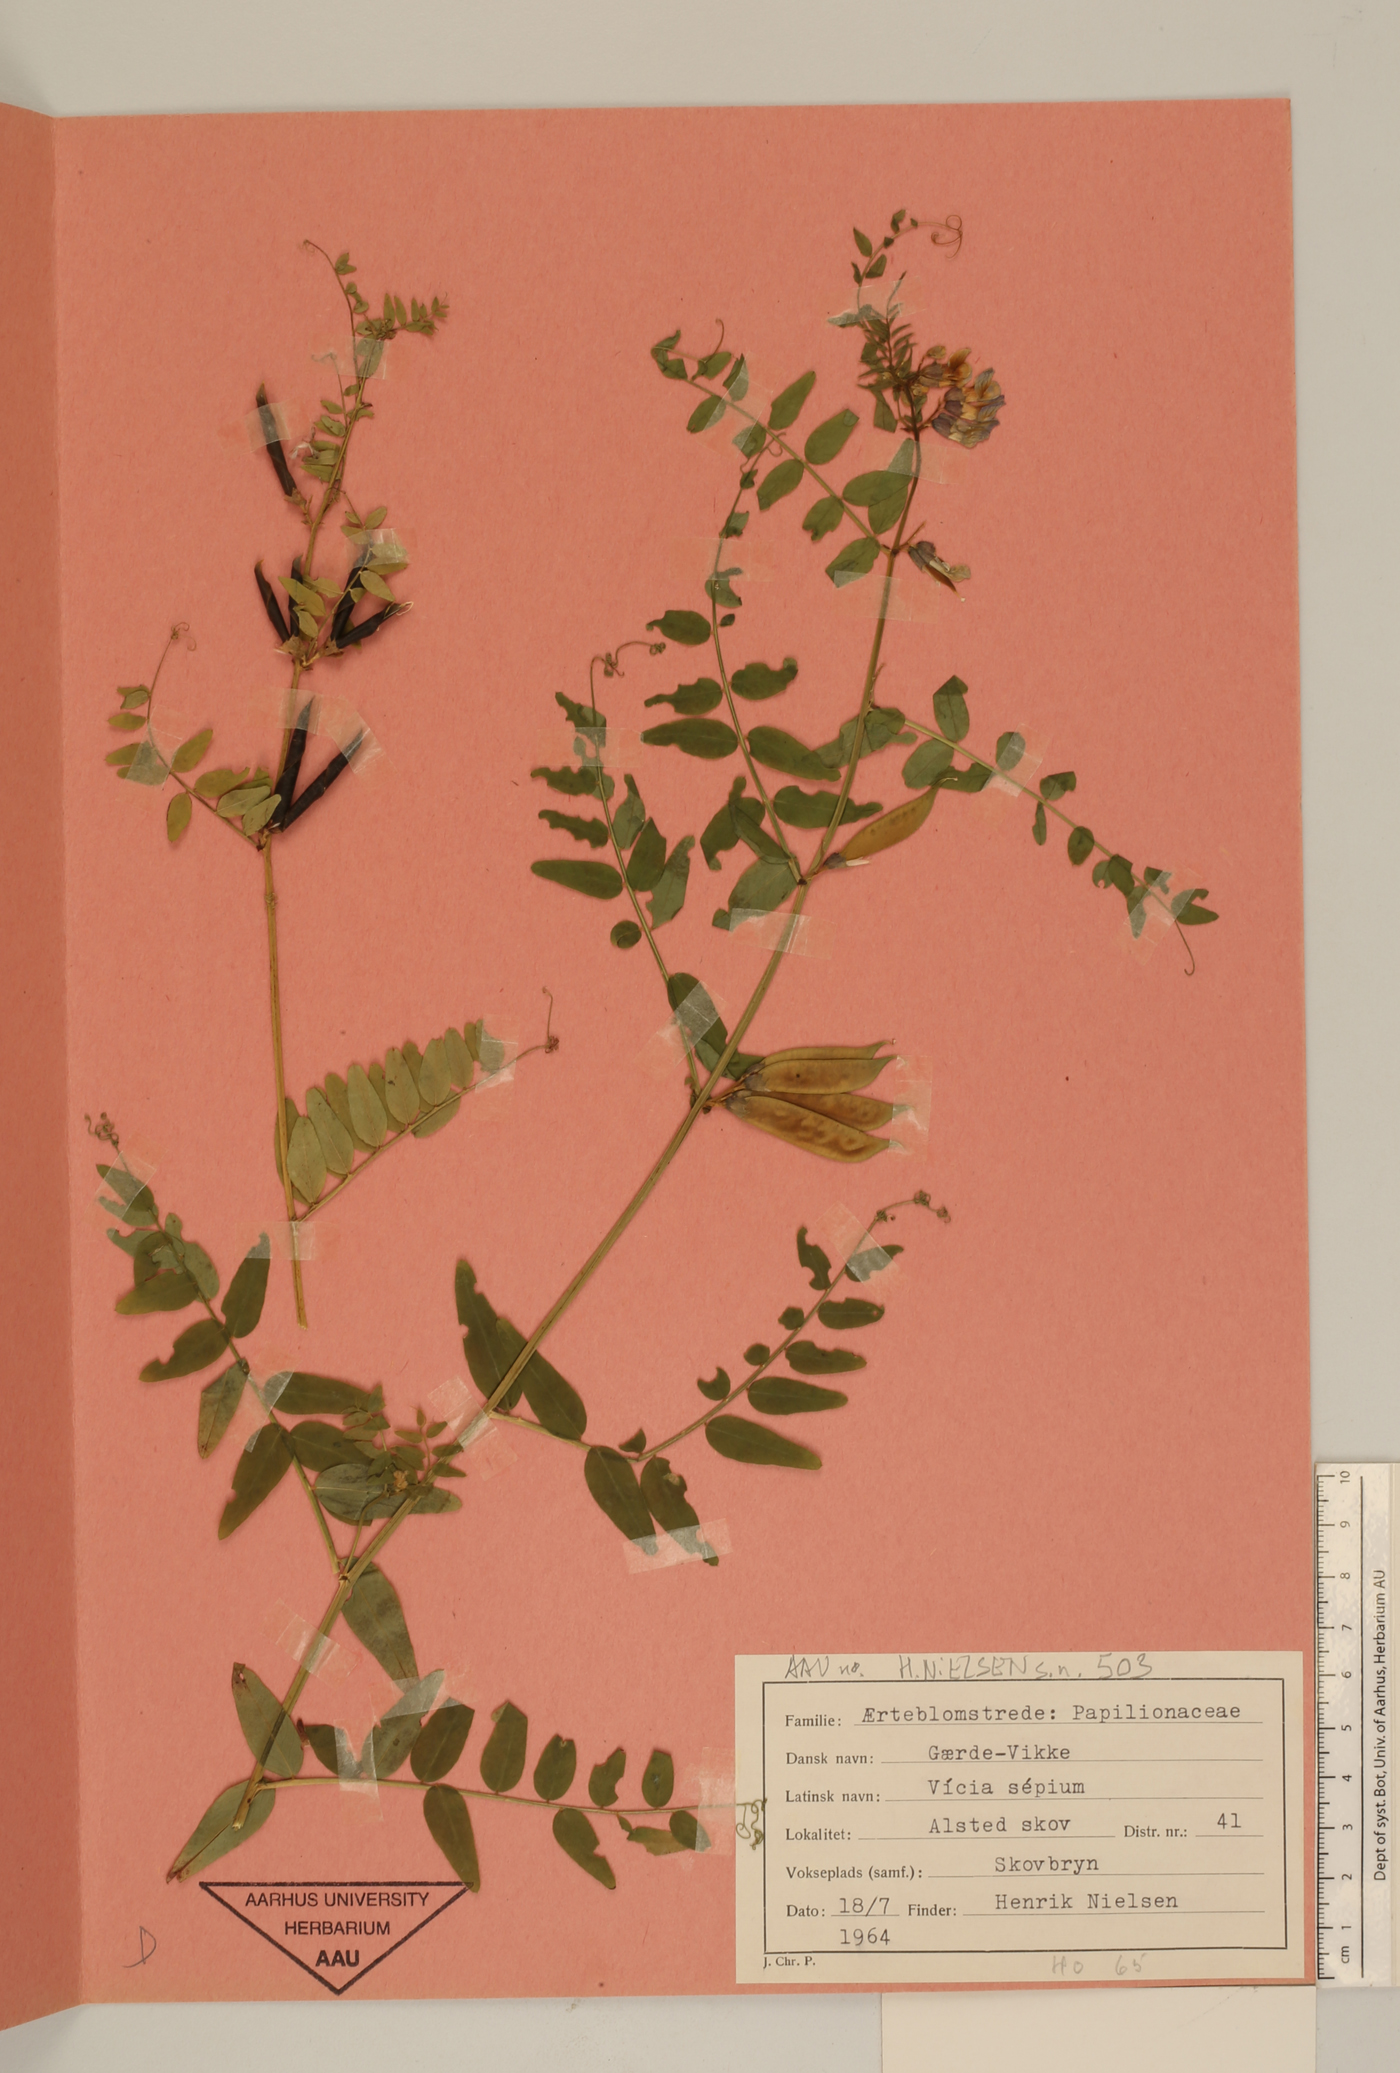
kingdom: Plantae
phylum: Tracheophyta
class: Magnoliopsida
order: Fabales
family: Fabaceae
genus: Vicia
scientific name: Vicia sepium
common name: Bush vetch
